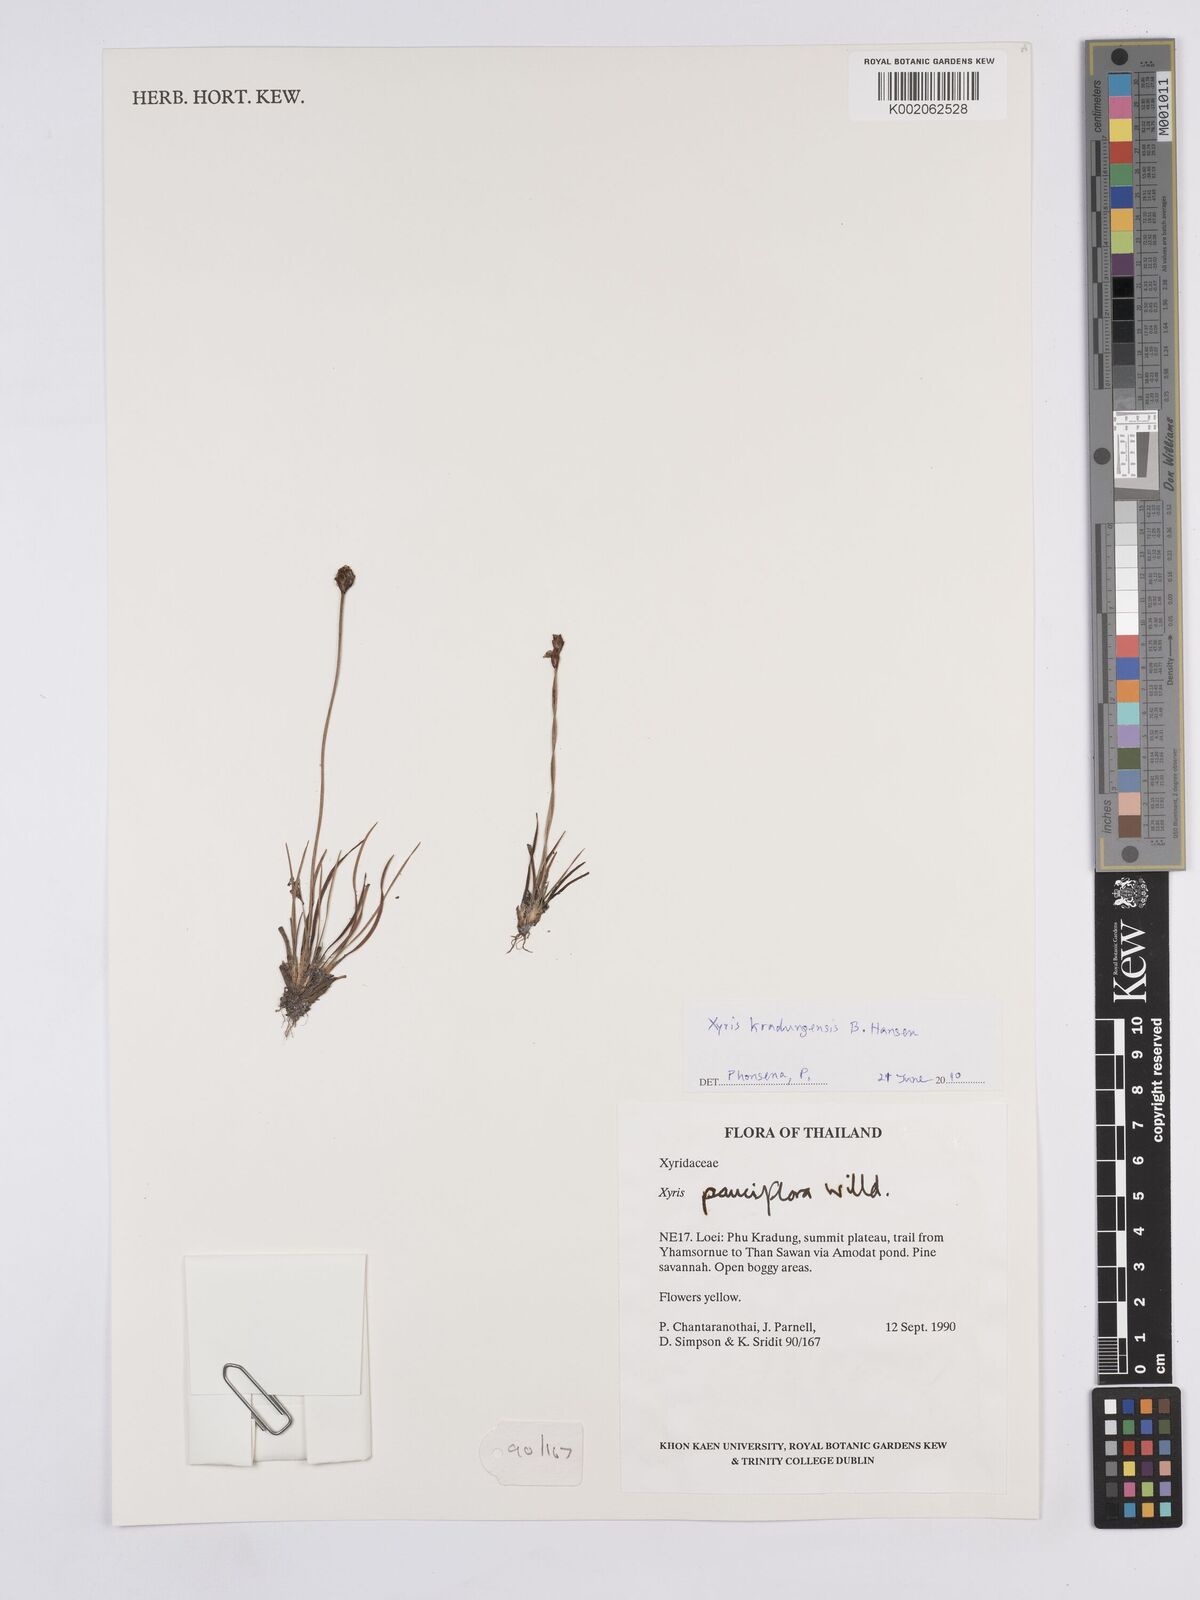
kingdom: Plantae
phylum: Tracheophyta
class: Liliopsida
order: Poales
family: Xyridaceae
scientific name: Xyridaceae
